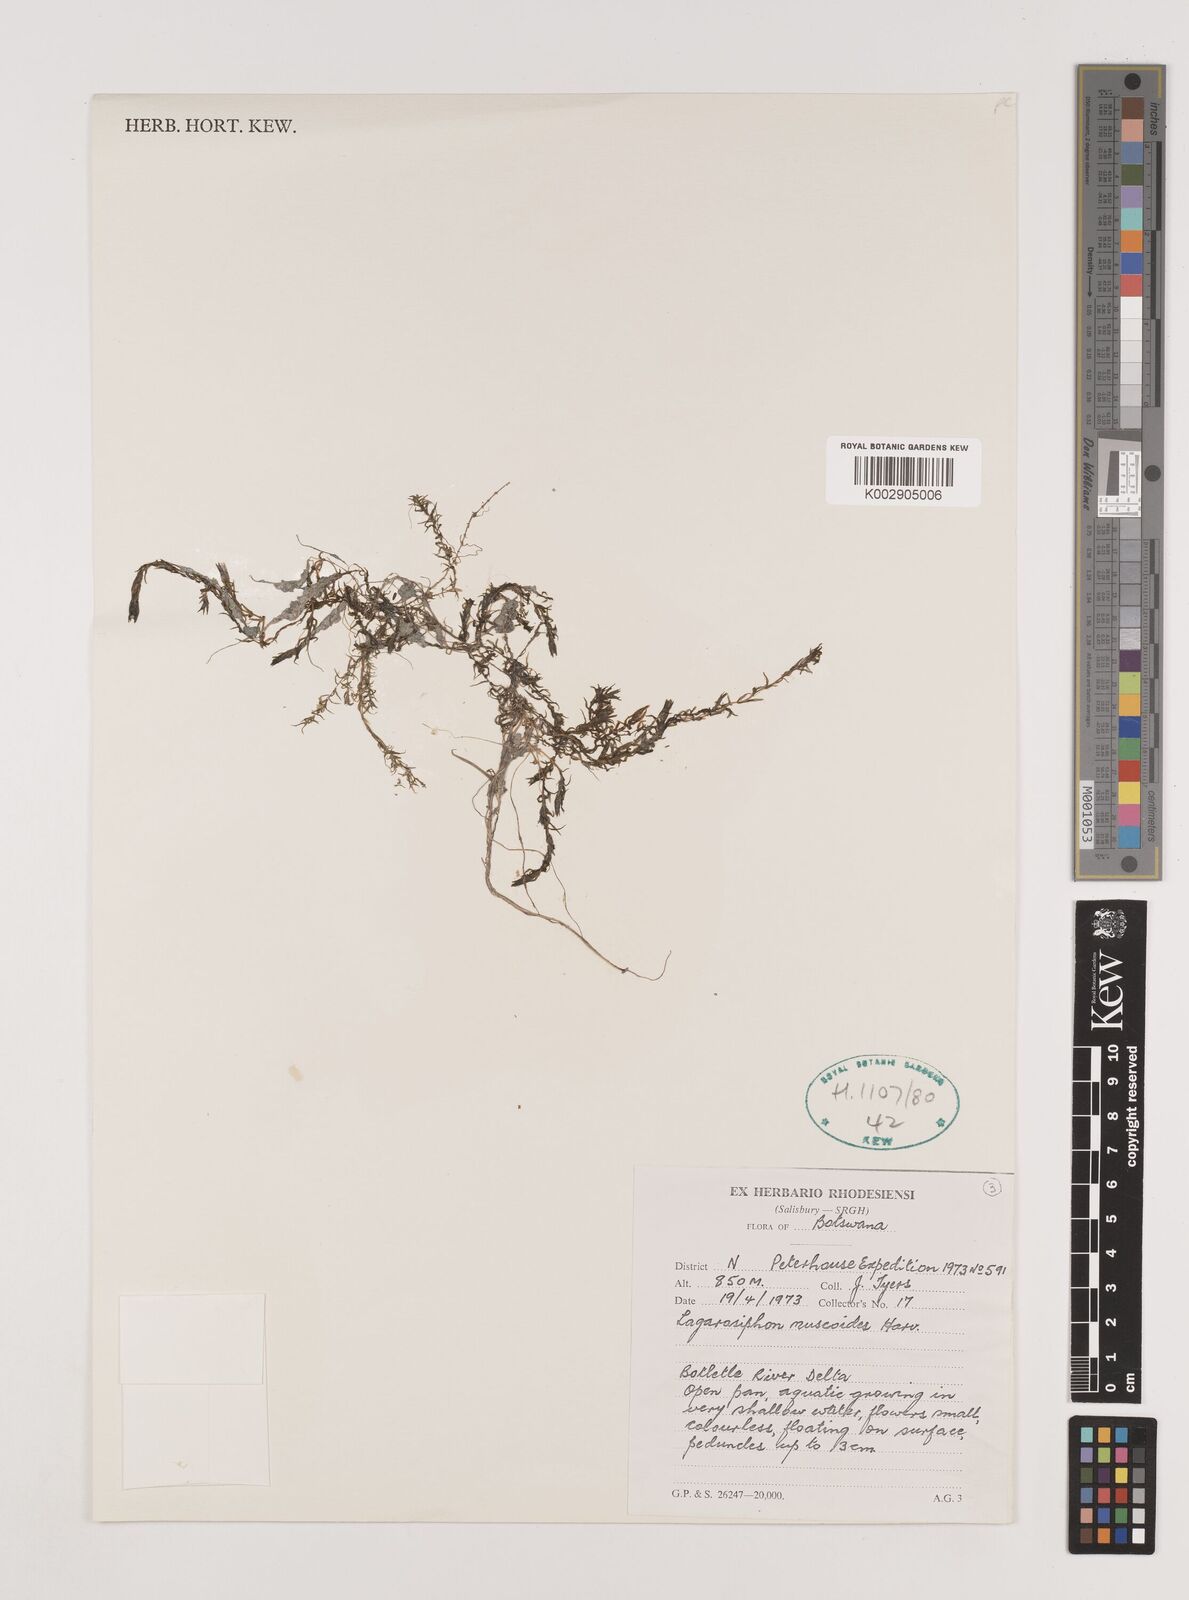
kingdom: Plantae
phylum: Tracheophyta
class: Liliopsida
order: Alismatales
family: Hydrocharitaceae
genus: Lagarosiphon
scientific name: Lagarosiphon muscoides
